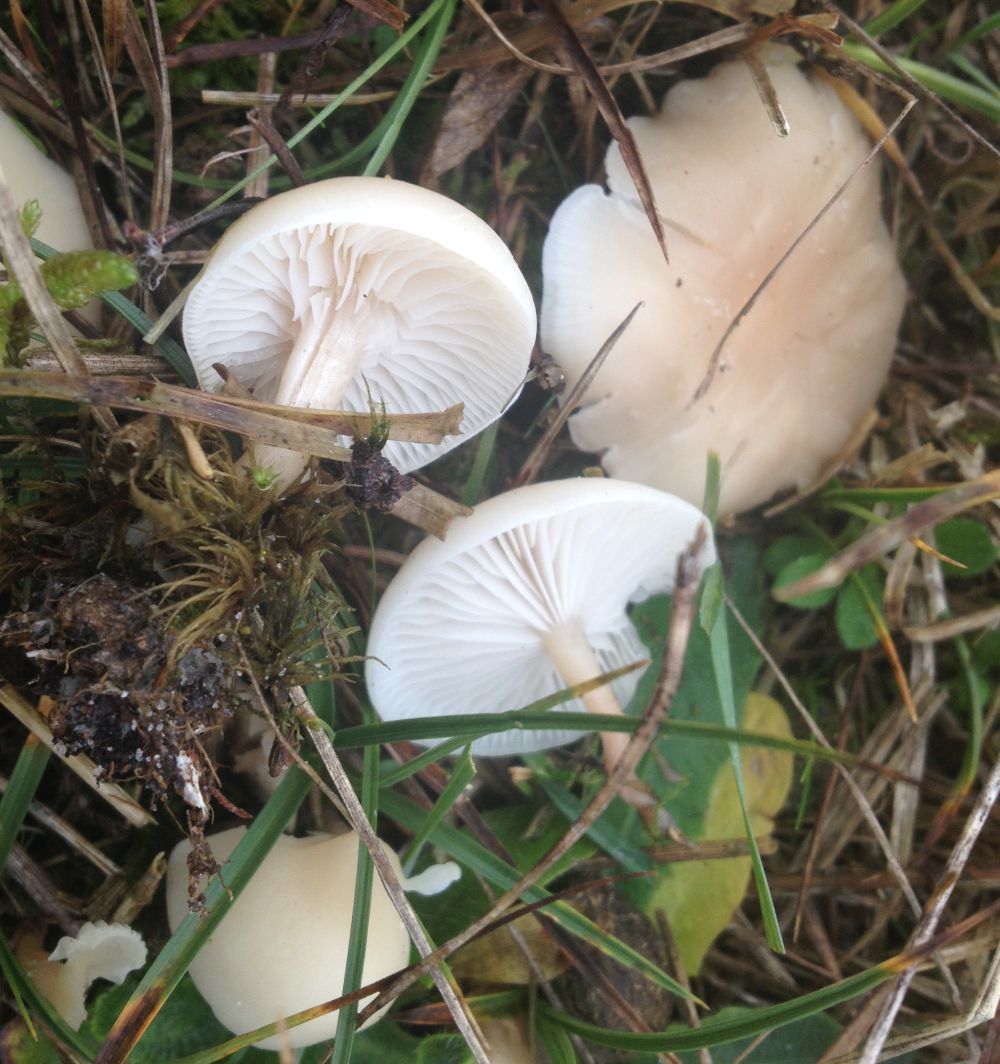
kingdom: Fungi
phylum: Basidiomycota
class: Agaricomycetes
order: Agaricales
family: Tricholomataceae
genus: Clitocybe
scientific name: Clitocybe
